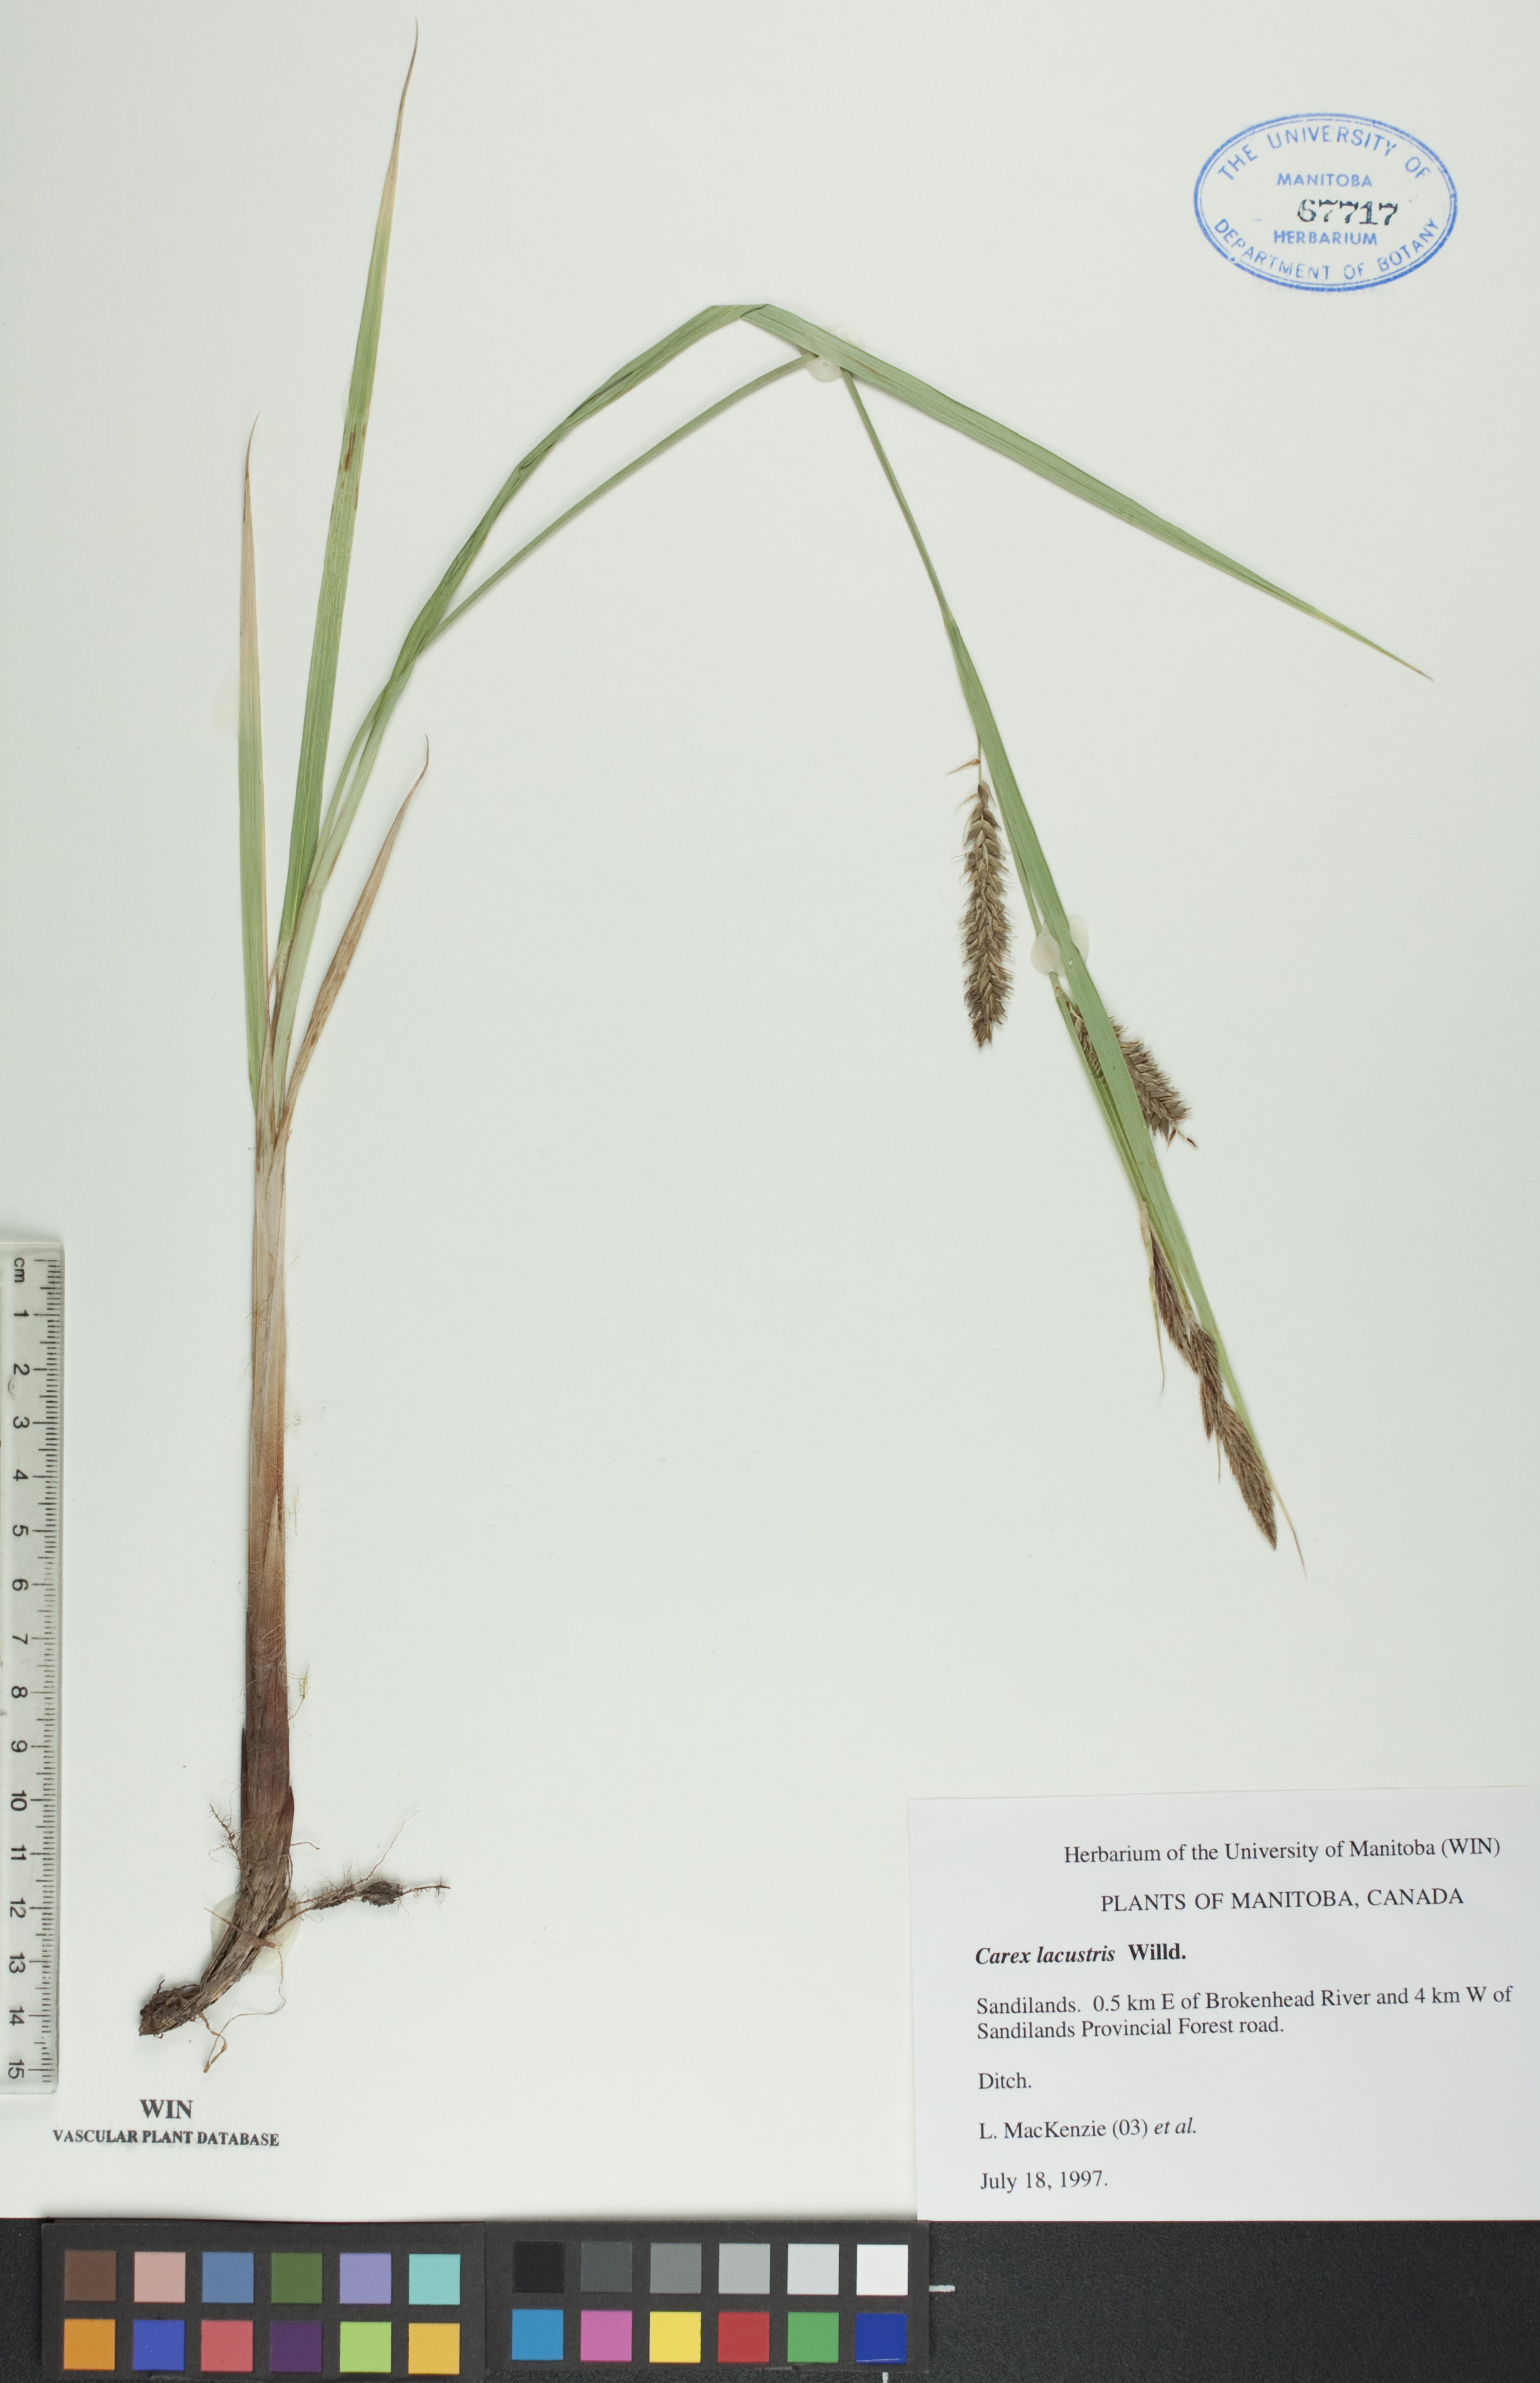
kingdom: Plantae
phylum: Tracheophyta
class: Liliopsida
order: Poales
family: Cyperaceae
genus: Carex
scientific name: Carex lacustris
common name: Common lake sedge
